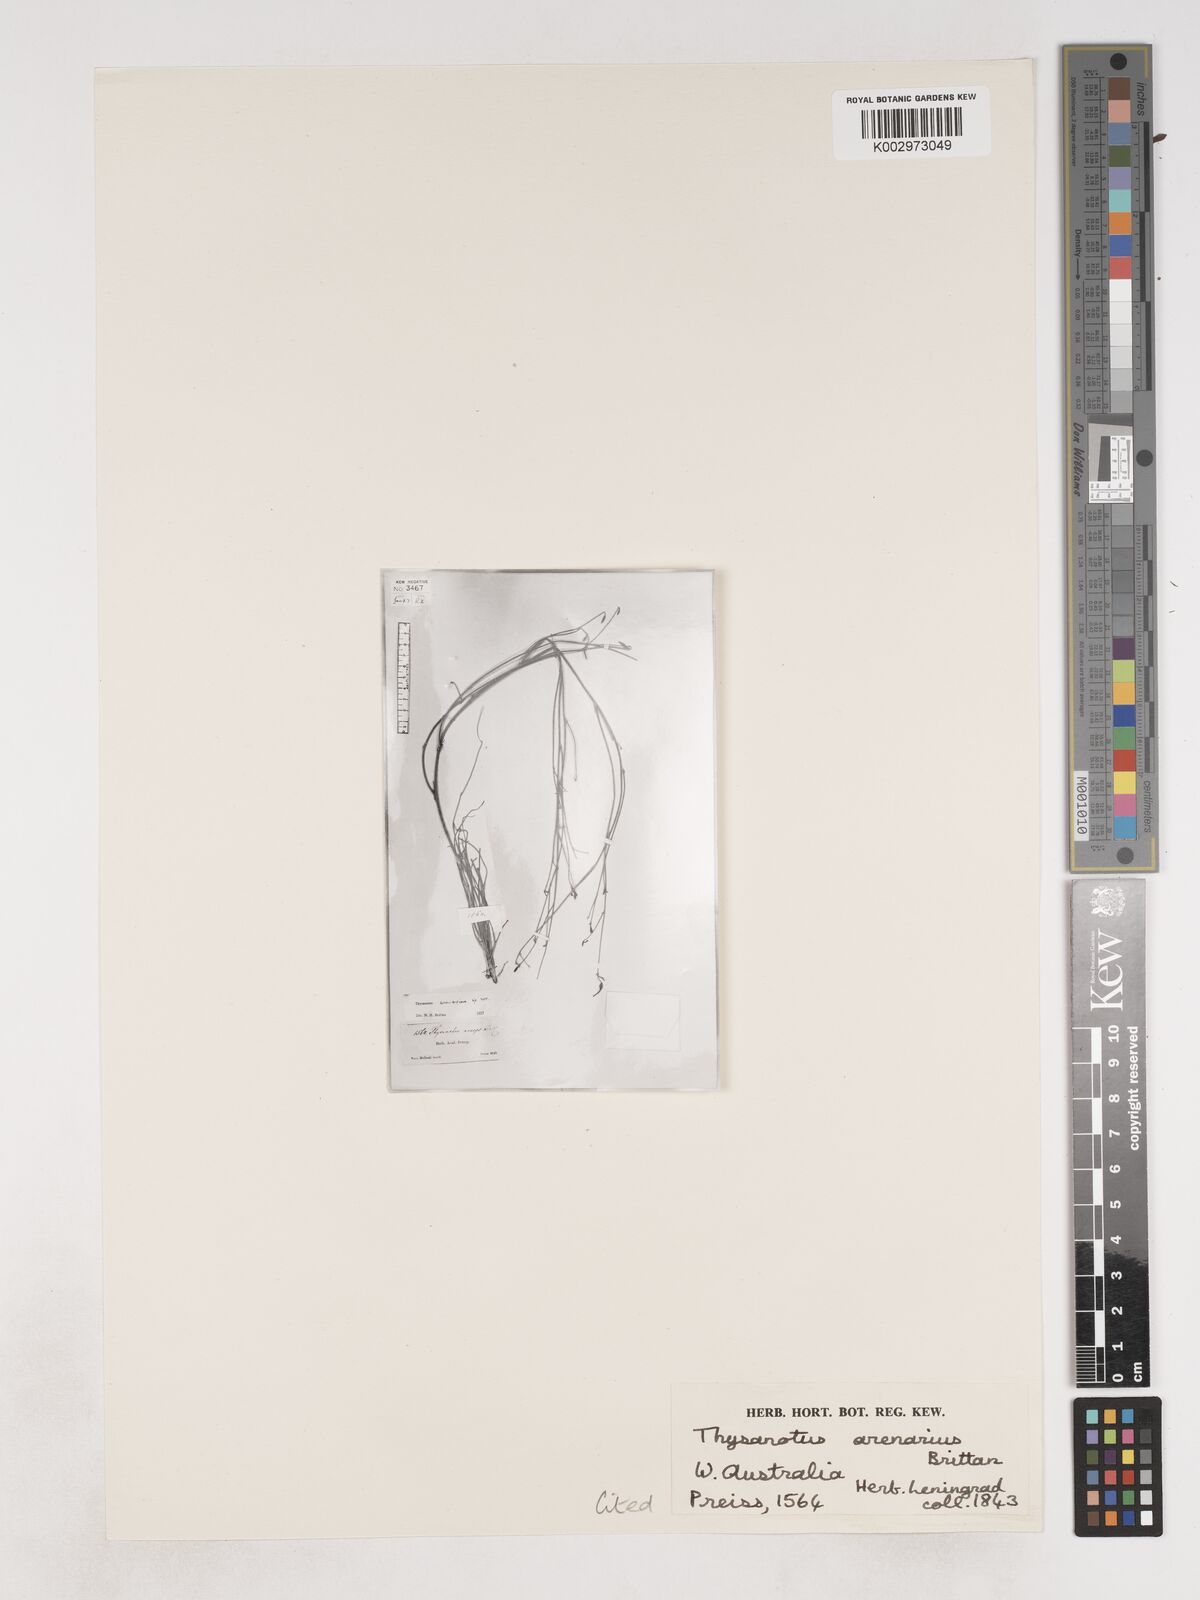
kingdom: Plantae
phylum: Tracheophyta
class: Liliopsida
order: Asparagales
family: Asparagaceae
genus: Thysanotus
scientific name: Thysanotus arenarius
